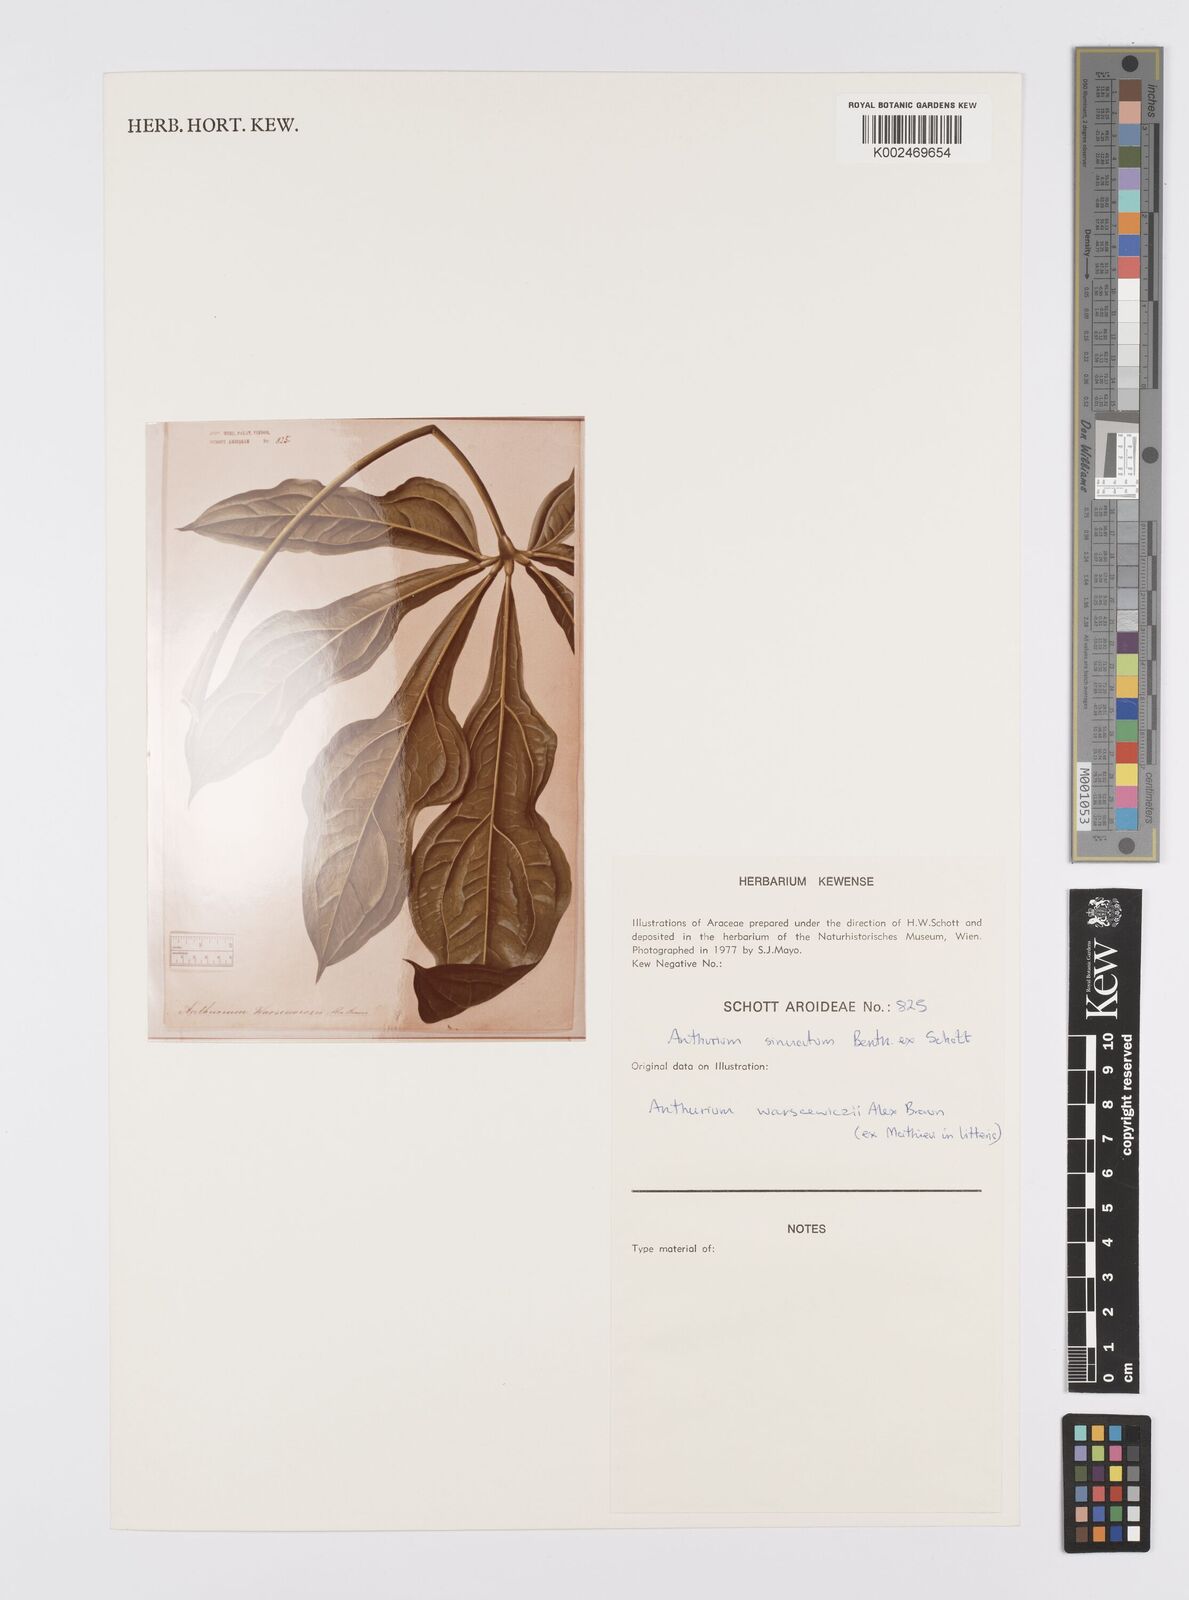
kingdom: Plantae
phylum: Tracheophyta
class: Liliopsida
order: Alismatales
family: Araceae
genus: Anthurium
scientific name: Anthurium sinuatum
